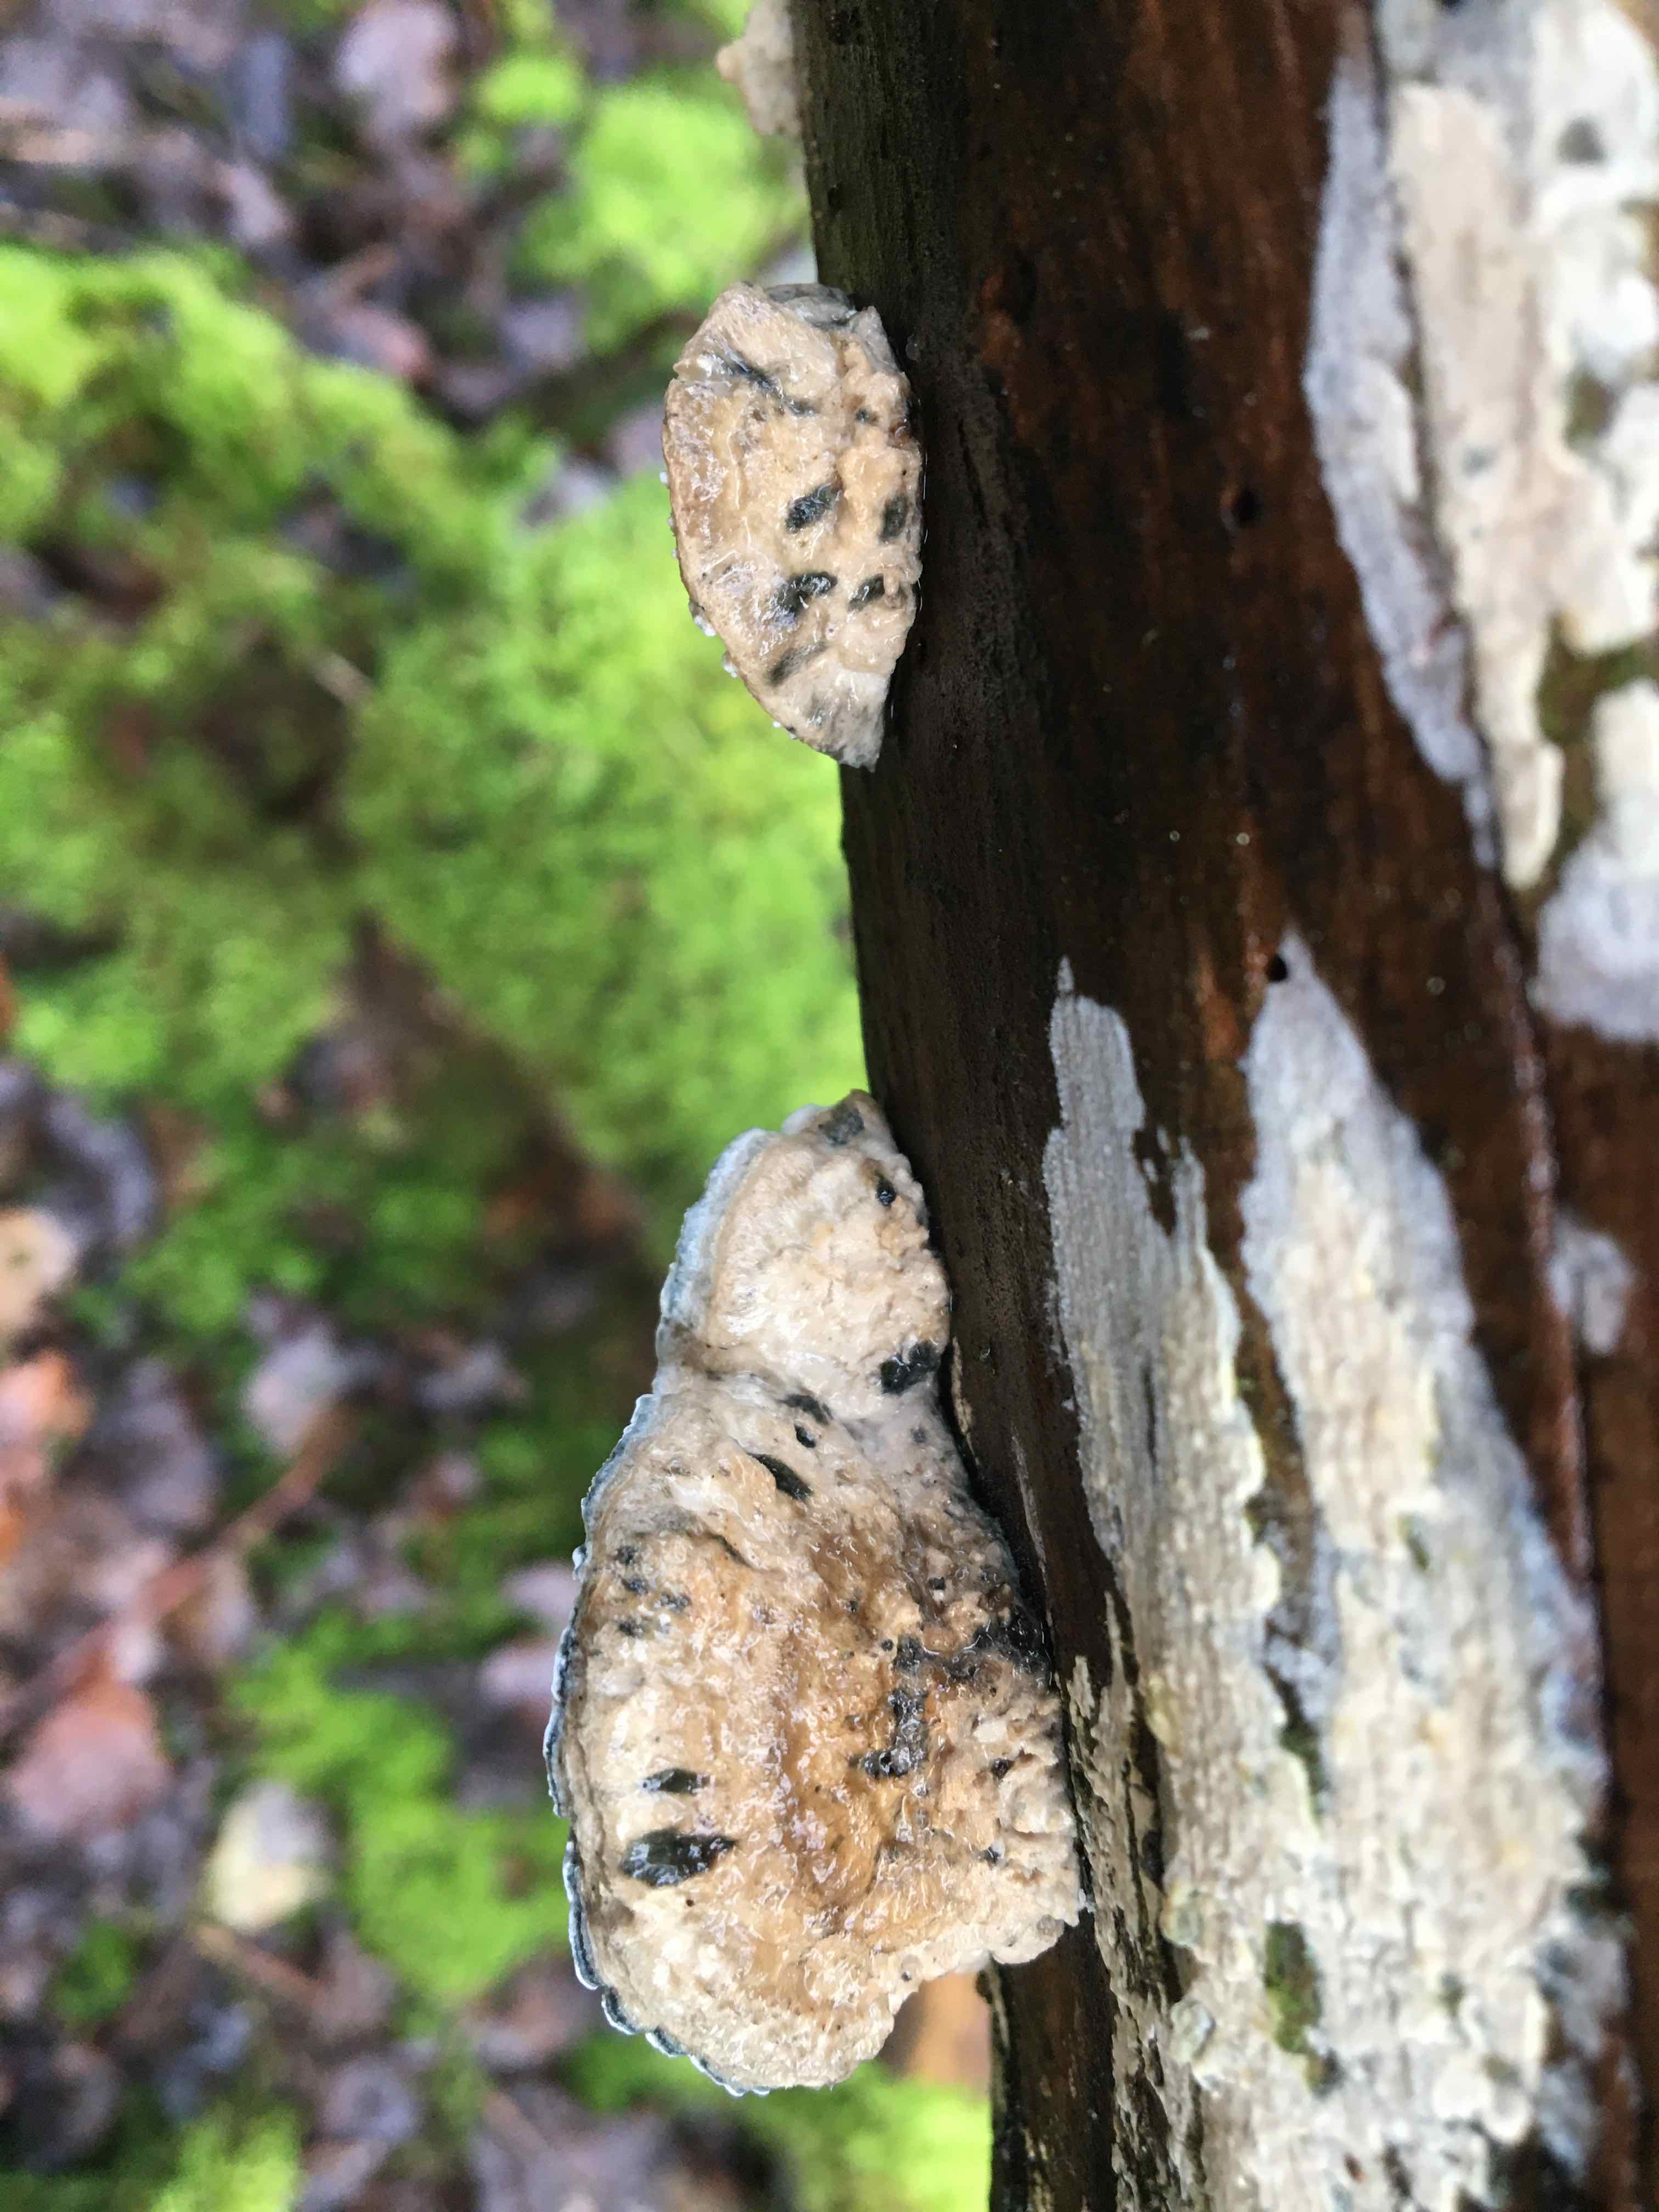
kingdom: Fungi
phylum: Basidiomycota
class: Agaricomycetes
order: Polyporales
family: Dacryobolaceae
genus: Postia
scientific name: Postia
